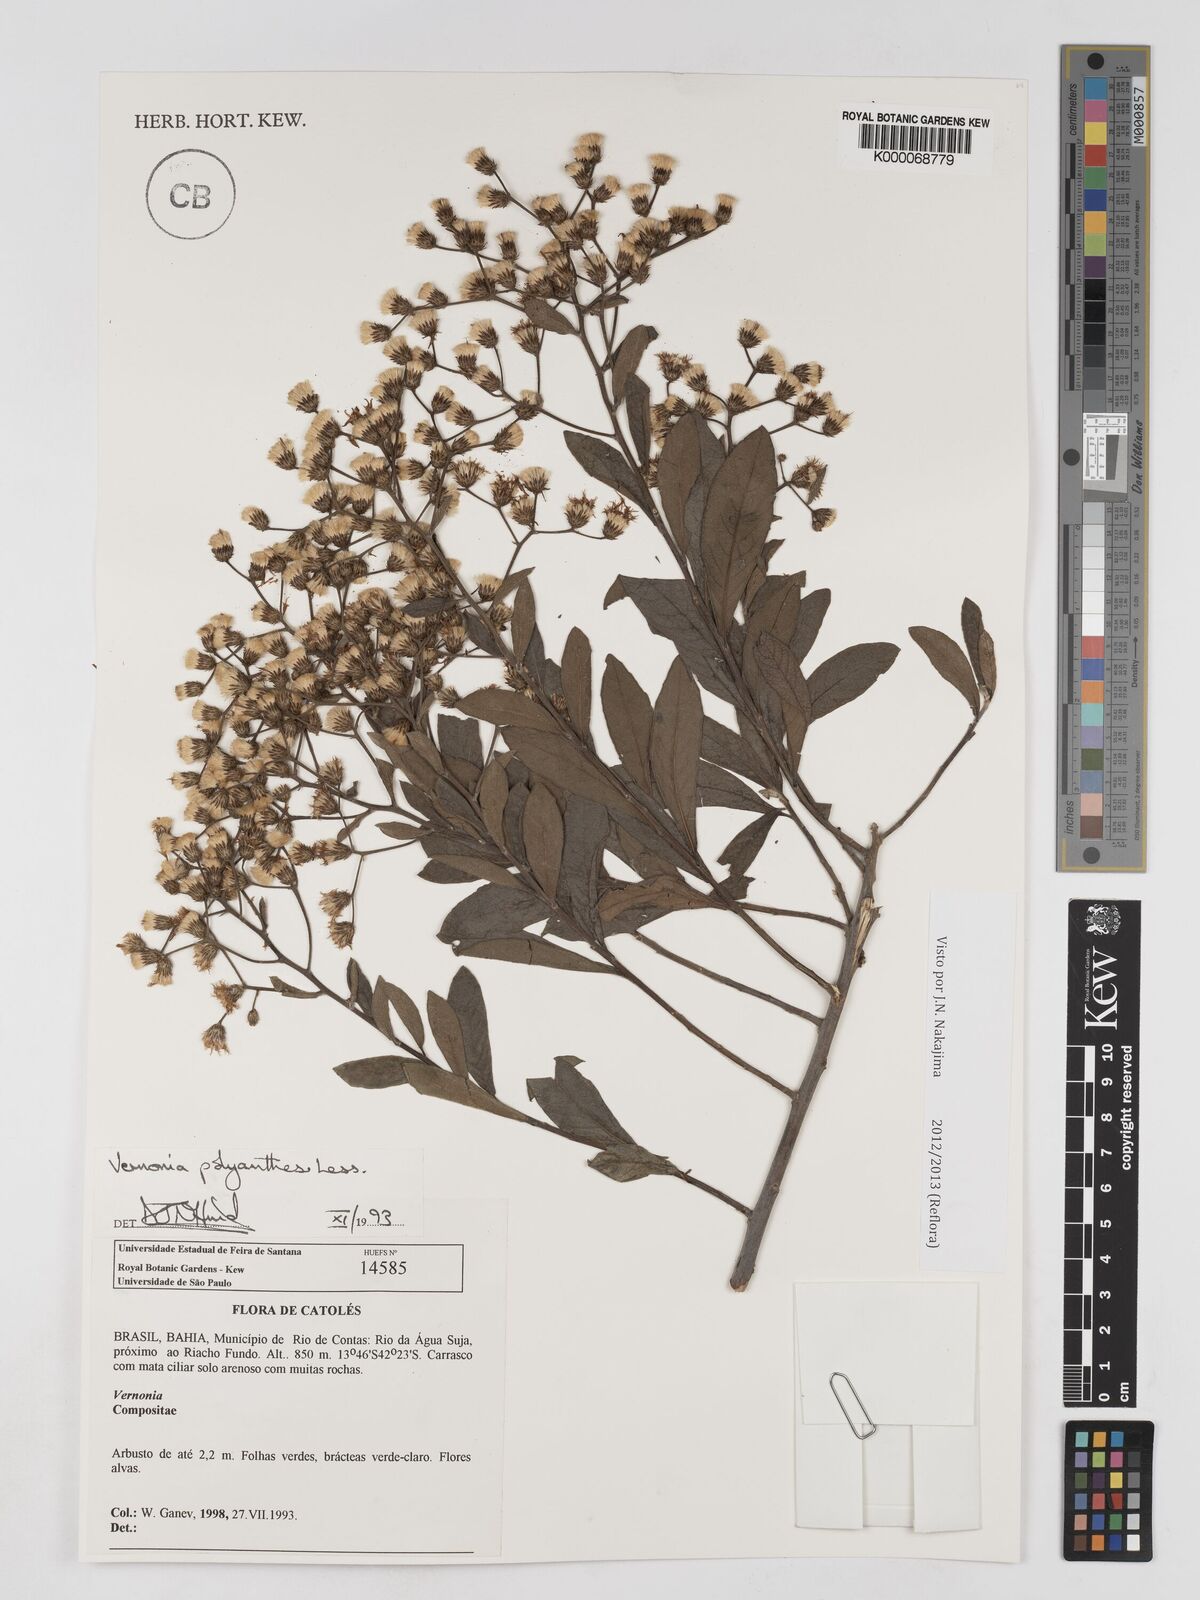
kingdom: Plantae
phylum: Tracheophyta
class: Magnoliopsida
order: Asterales
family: Asteraceae
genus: Vernonanthura
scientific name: Vernonanthura polyanthes
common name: Tree aster
